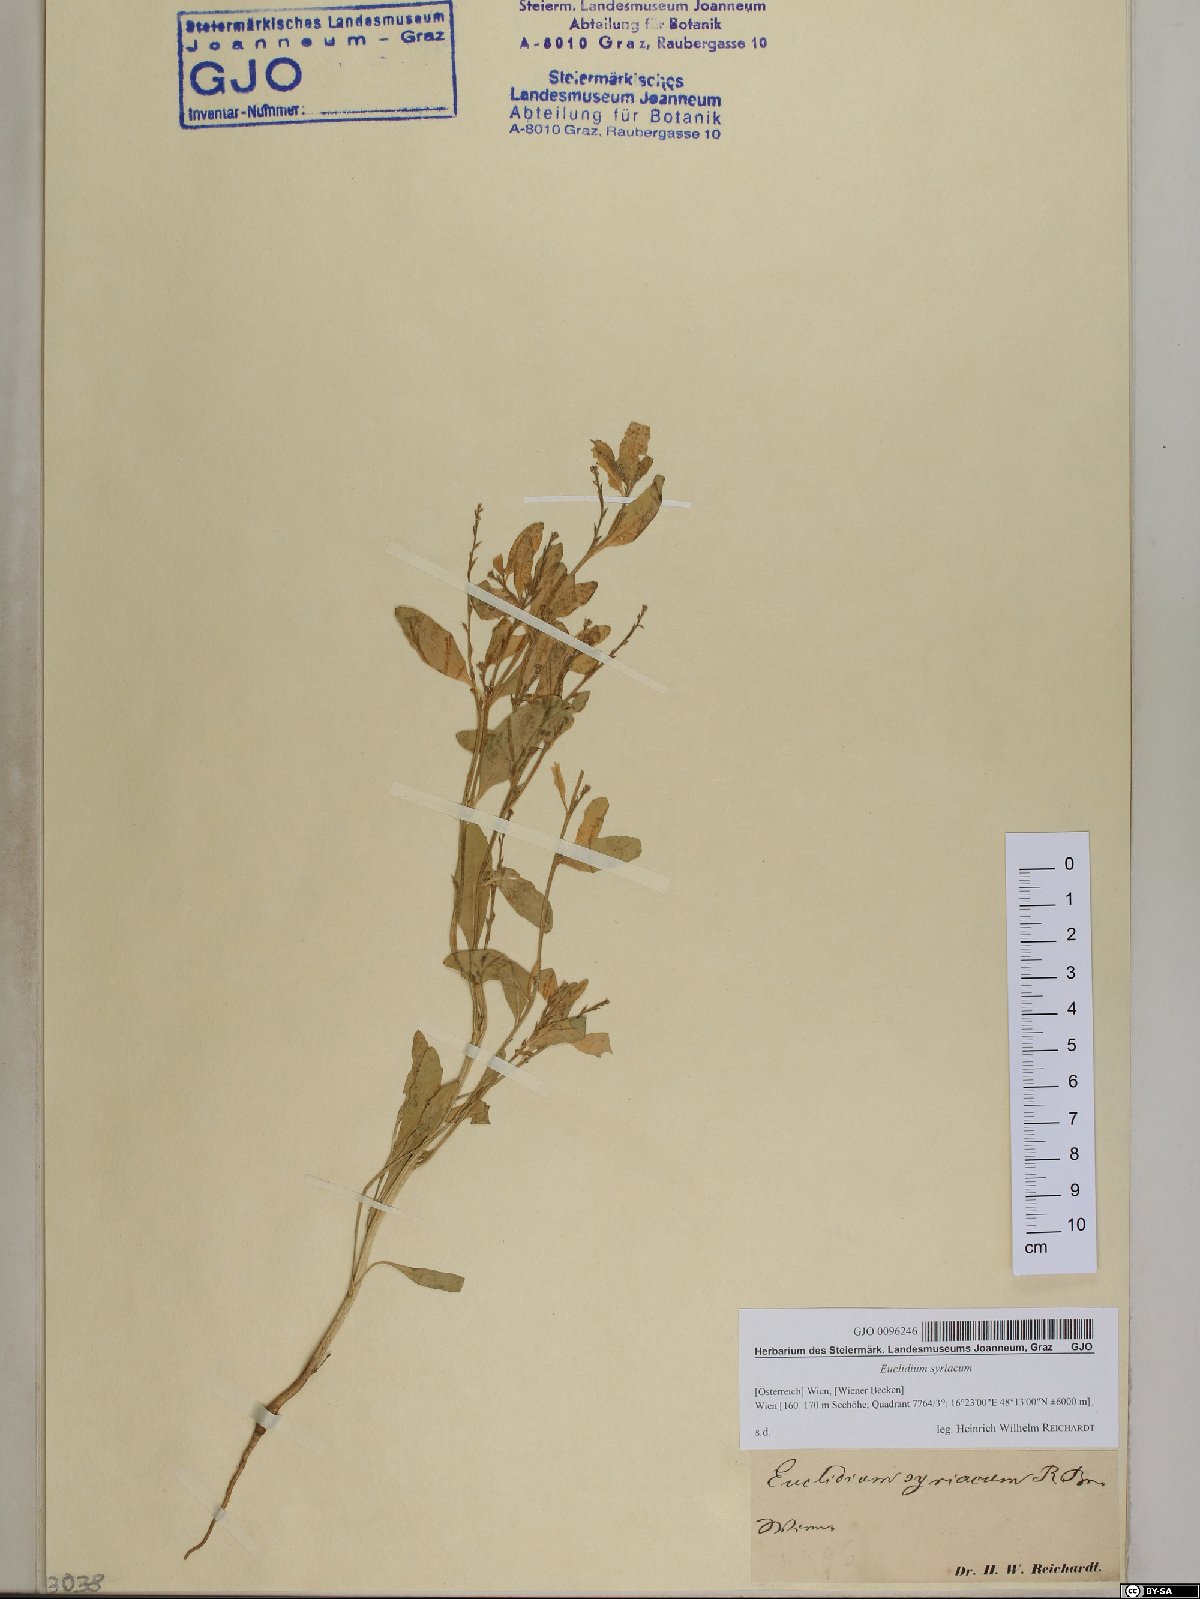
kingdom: Plantae
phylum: Tracheophyta
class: Magnoliopsida
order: Brassicales
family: Brassicaceae
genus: Euclidium
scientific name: Euclidium syriacum
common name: Syrian mustard
